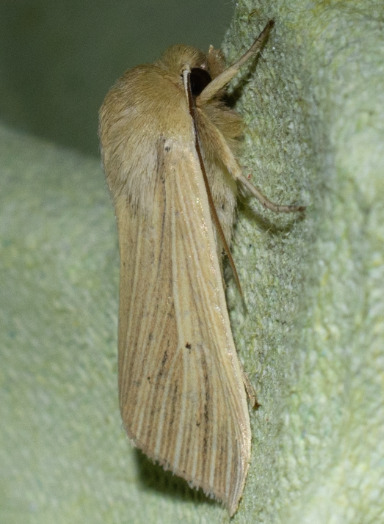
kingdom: Animalia
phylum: Arthropoda
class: Insecta
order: Lepidoptera
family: Noctuidae
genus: Mythimna
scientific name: Mythimna pallens
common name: Halmugle
